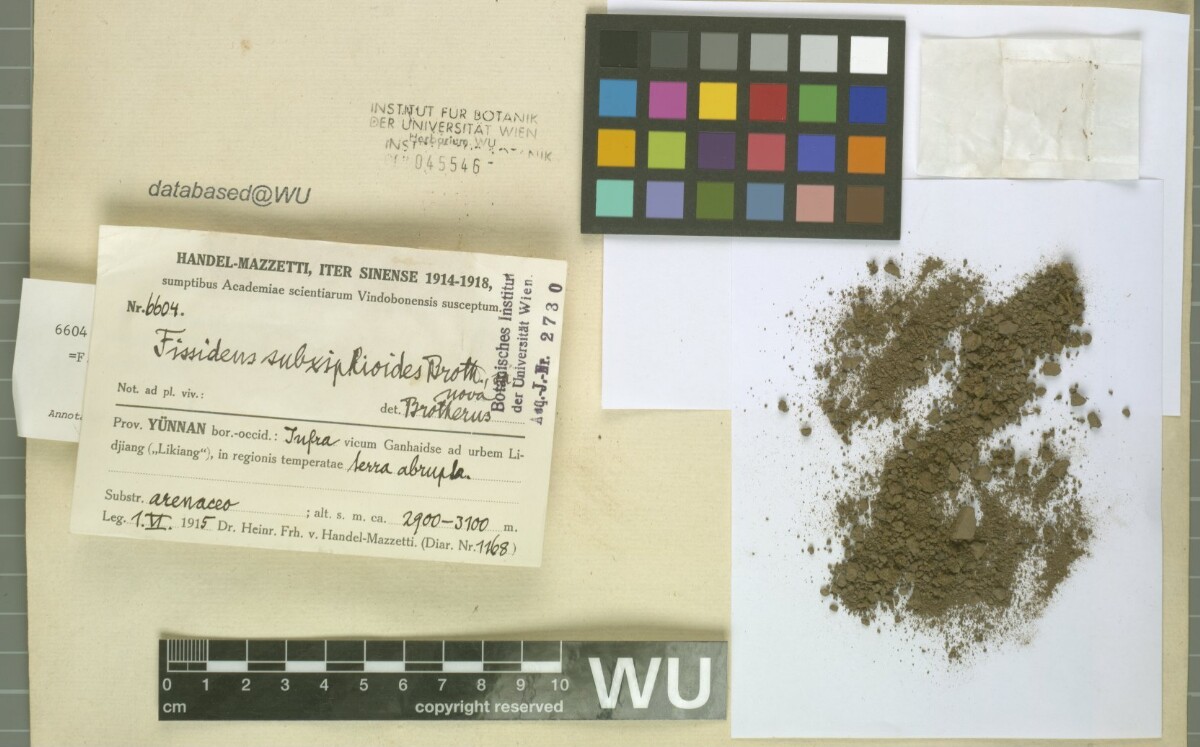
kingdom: Plantae
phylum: Bryophyta
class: Bryopsida
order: Dicranales
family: Fissidentaceae
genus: Fissidens
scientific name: Fissidens curvatus
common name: Milo's fissidens moss
